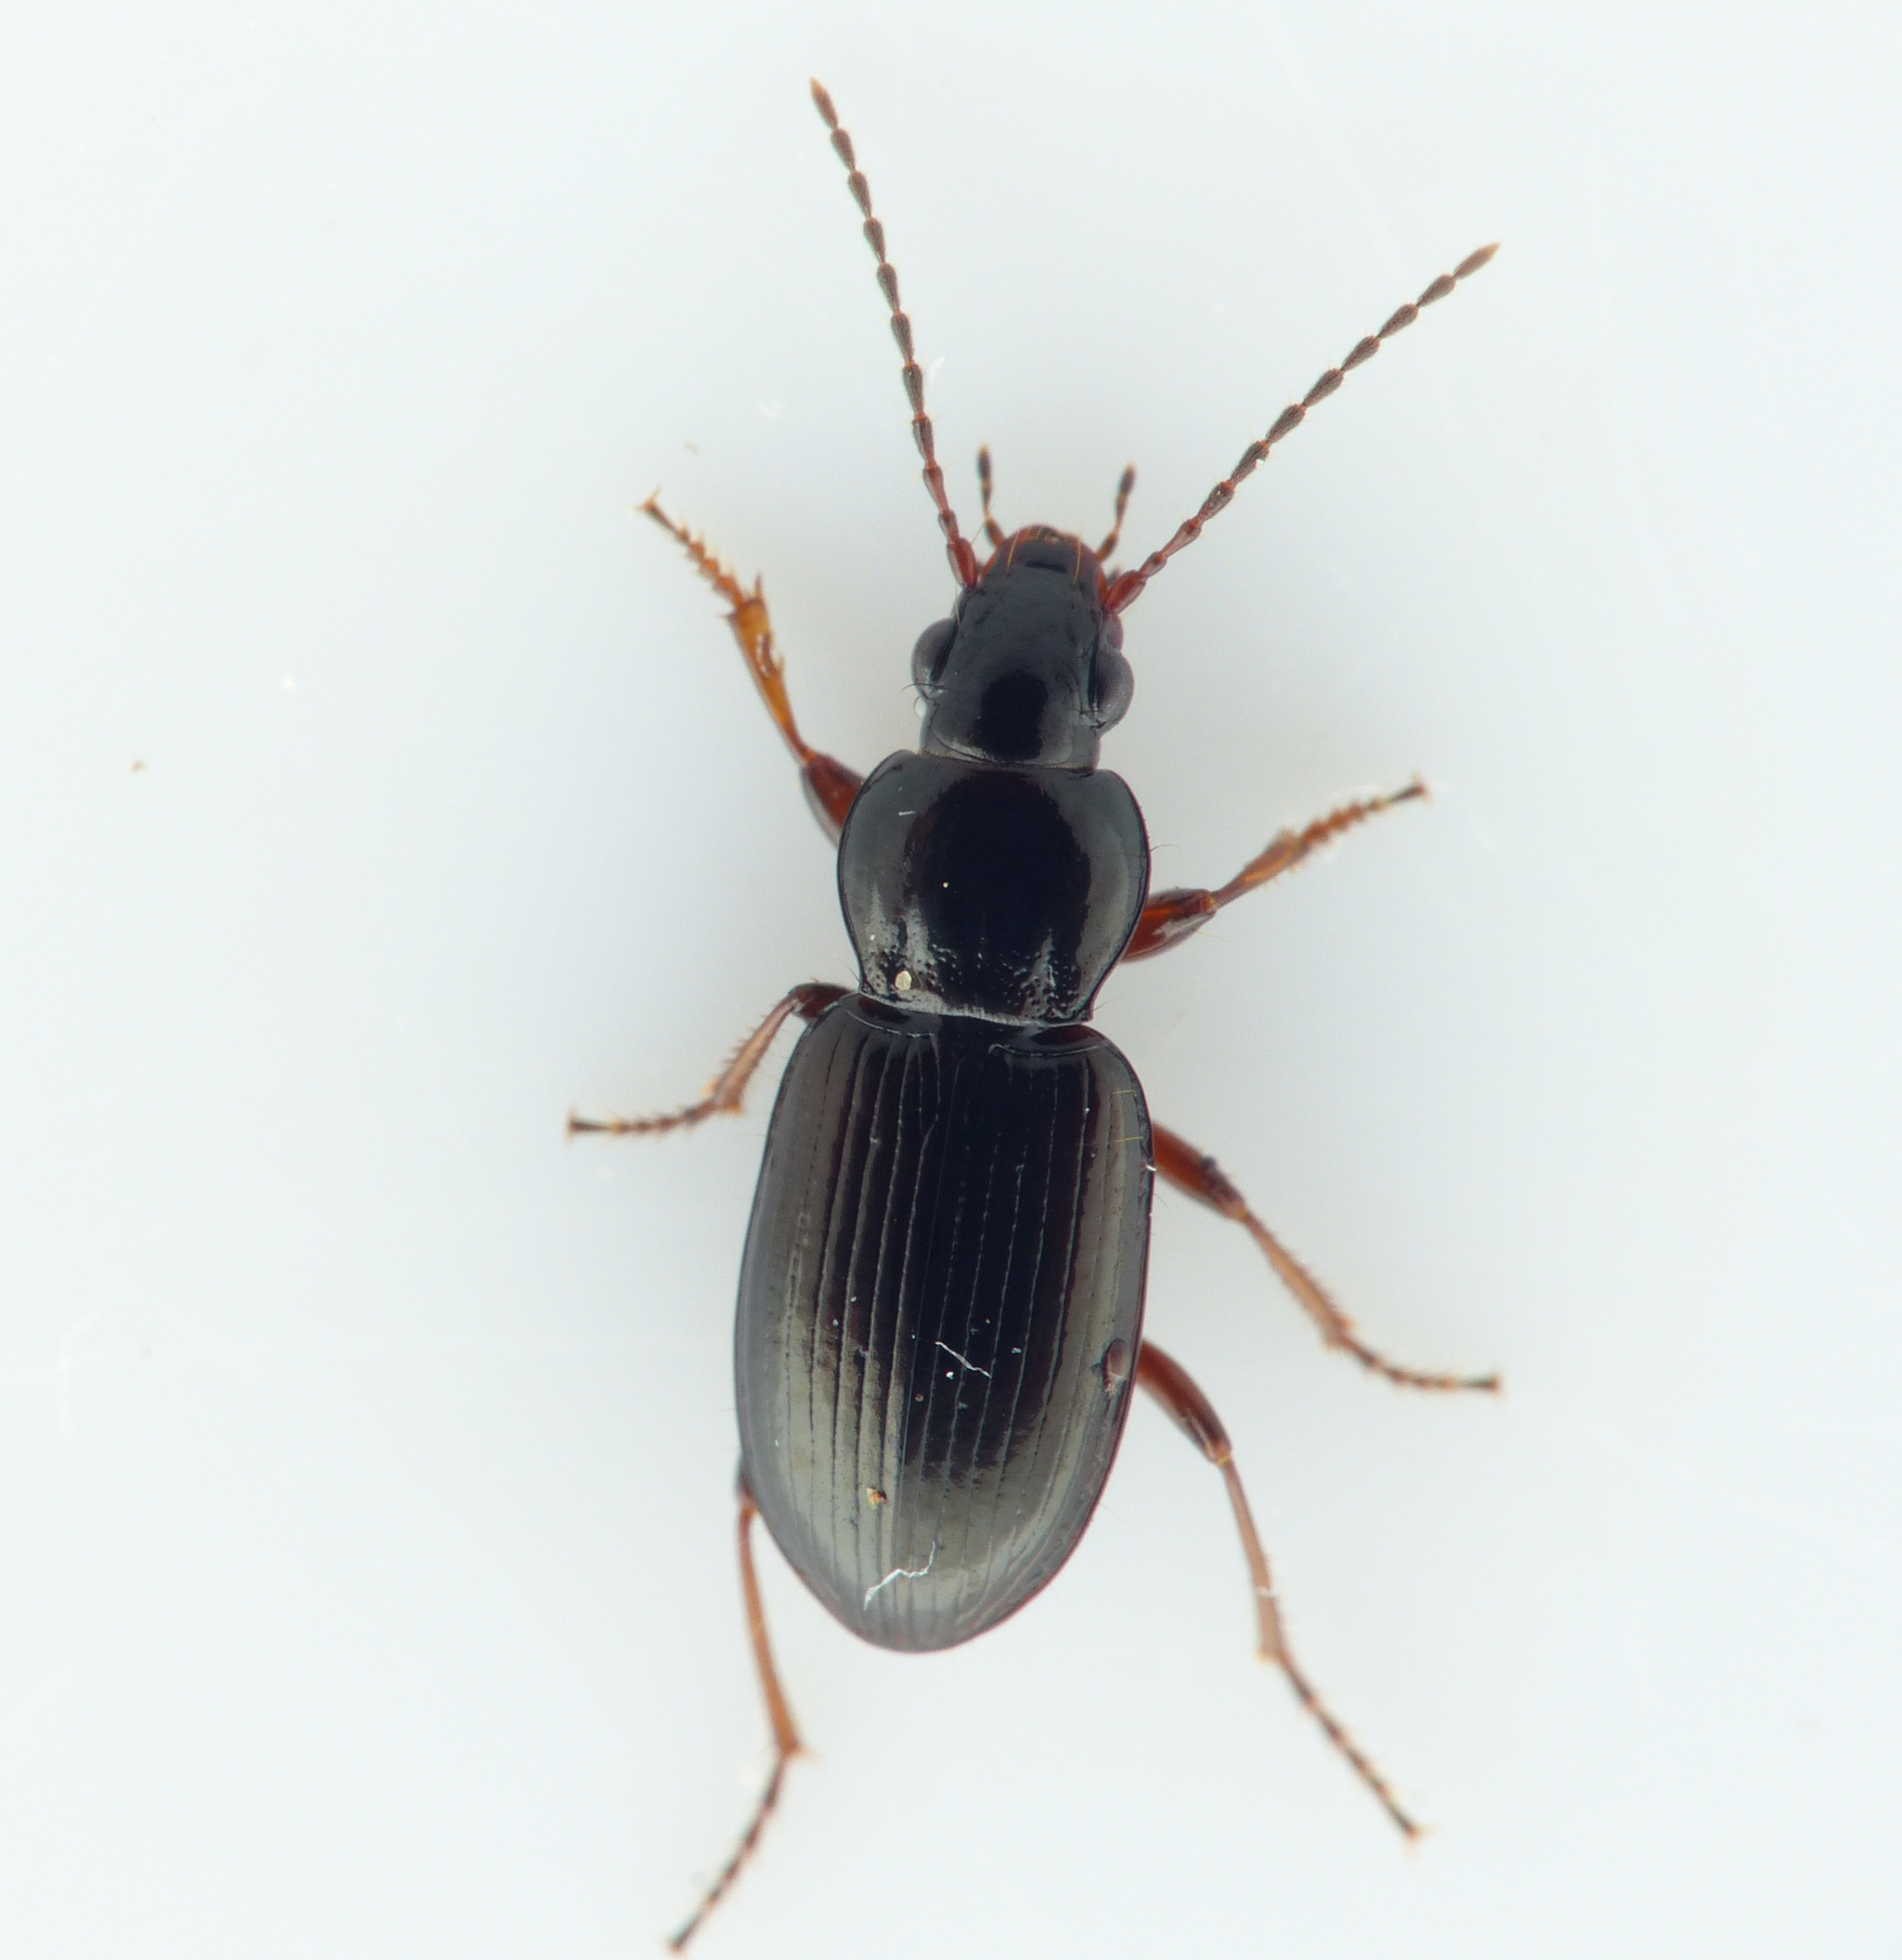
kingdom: Animalia
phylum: Arthropoda
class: Insecta
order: Coleoptera
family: Carabidae
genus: Pterostichus
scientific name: Pterostichus strenuus
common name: Rødbenet jordløber
